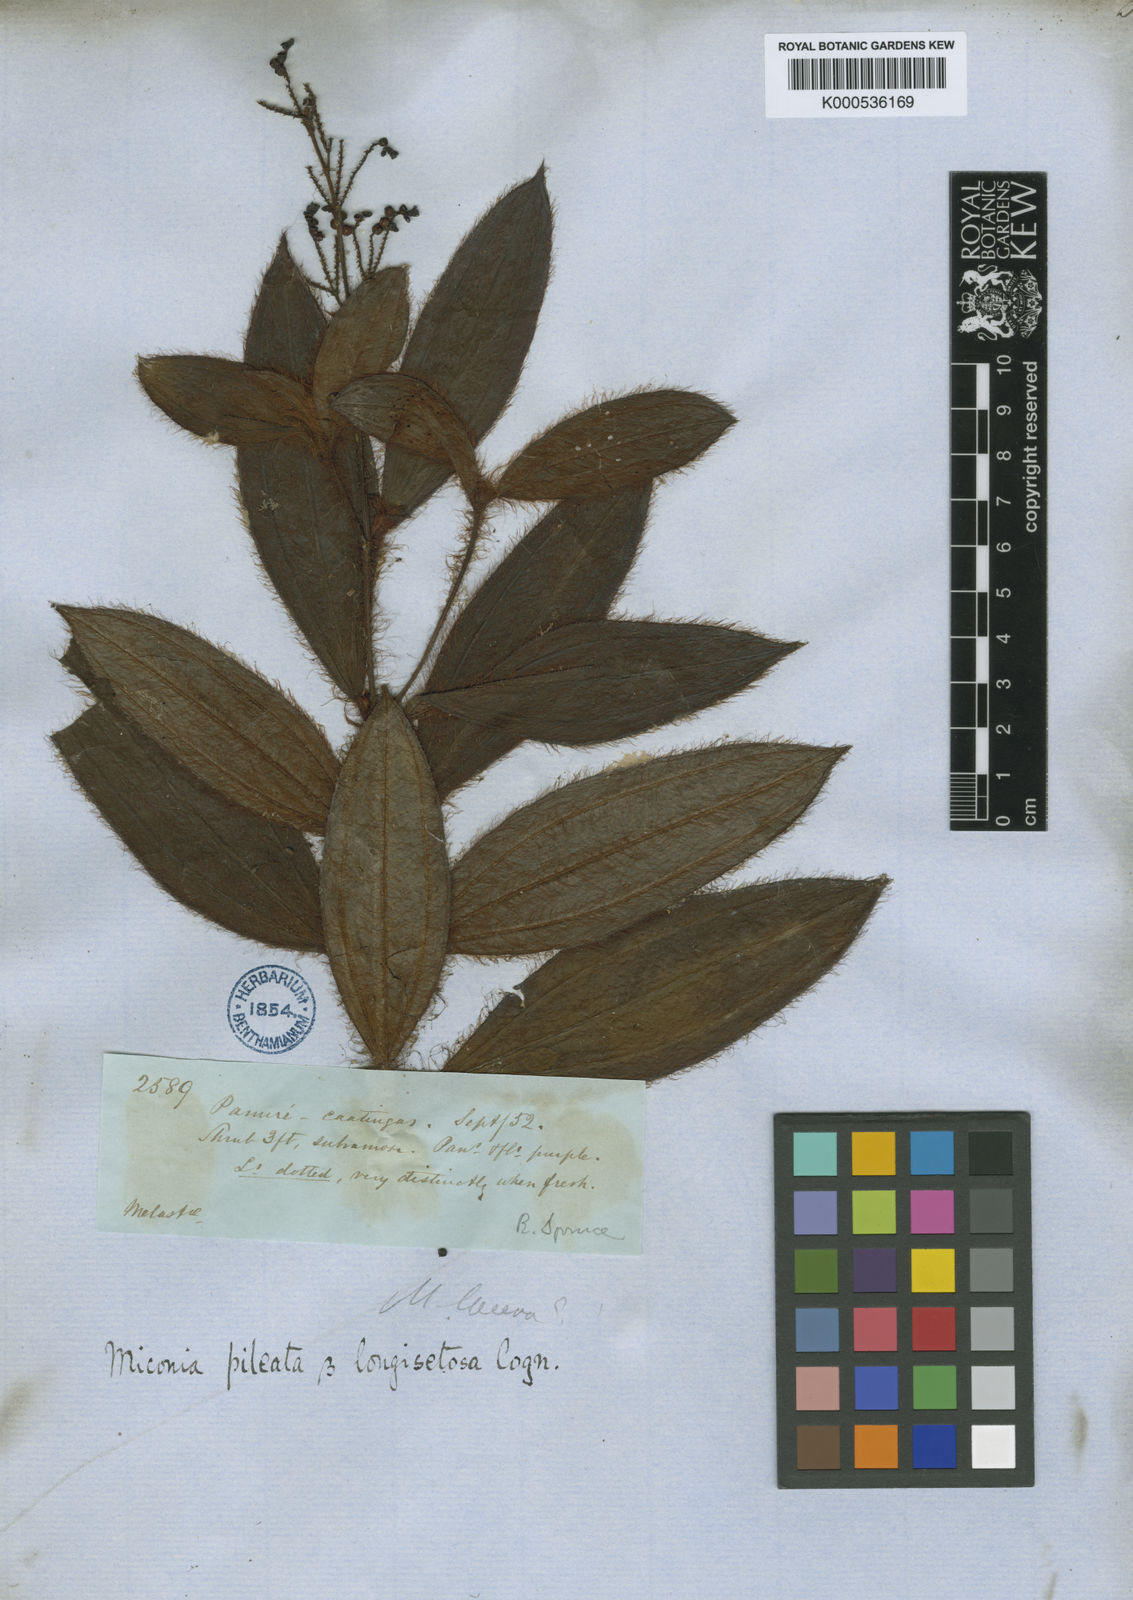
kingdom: Plantae
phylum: Tracheophyta
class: Magnoliopsida
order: Myrtales
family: Melastomataceae
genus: Miconia
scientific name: Miconia pileata
